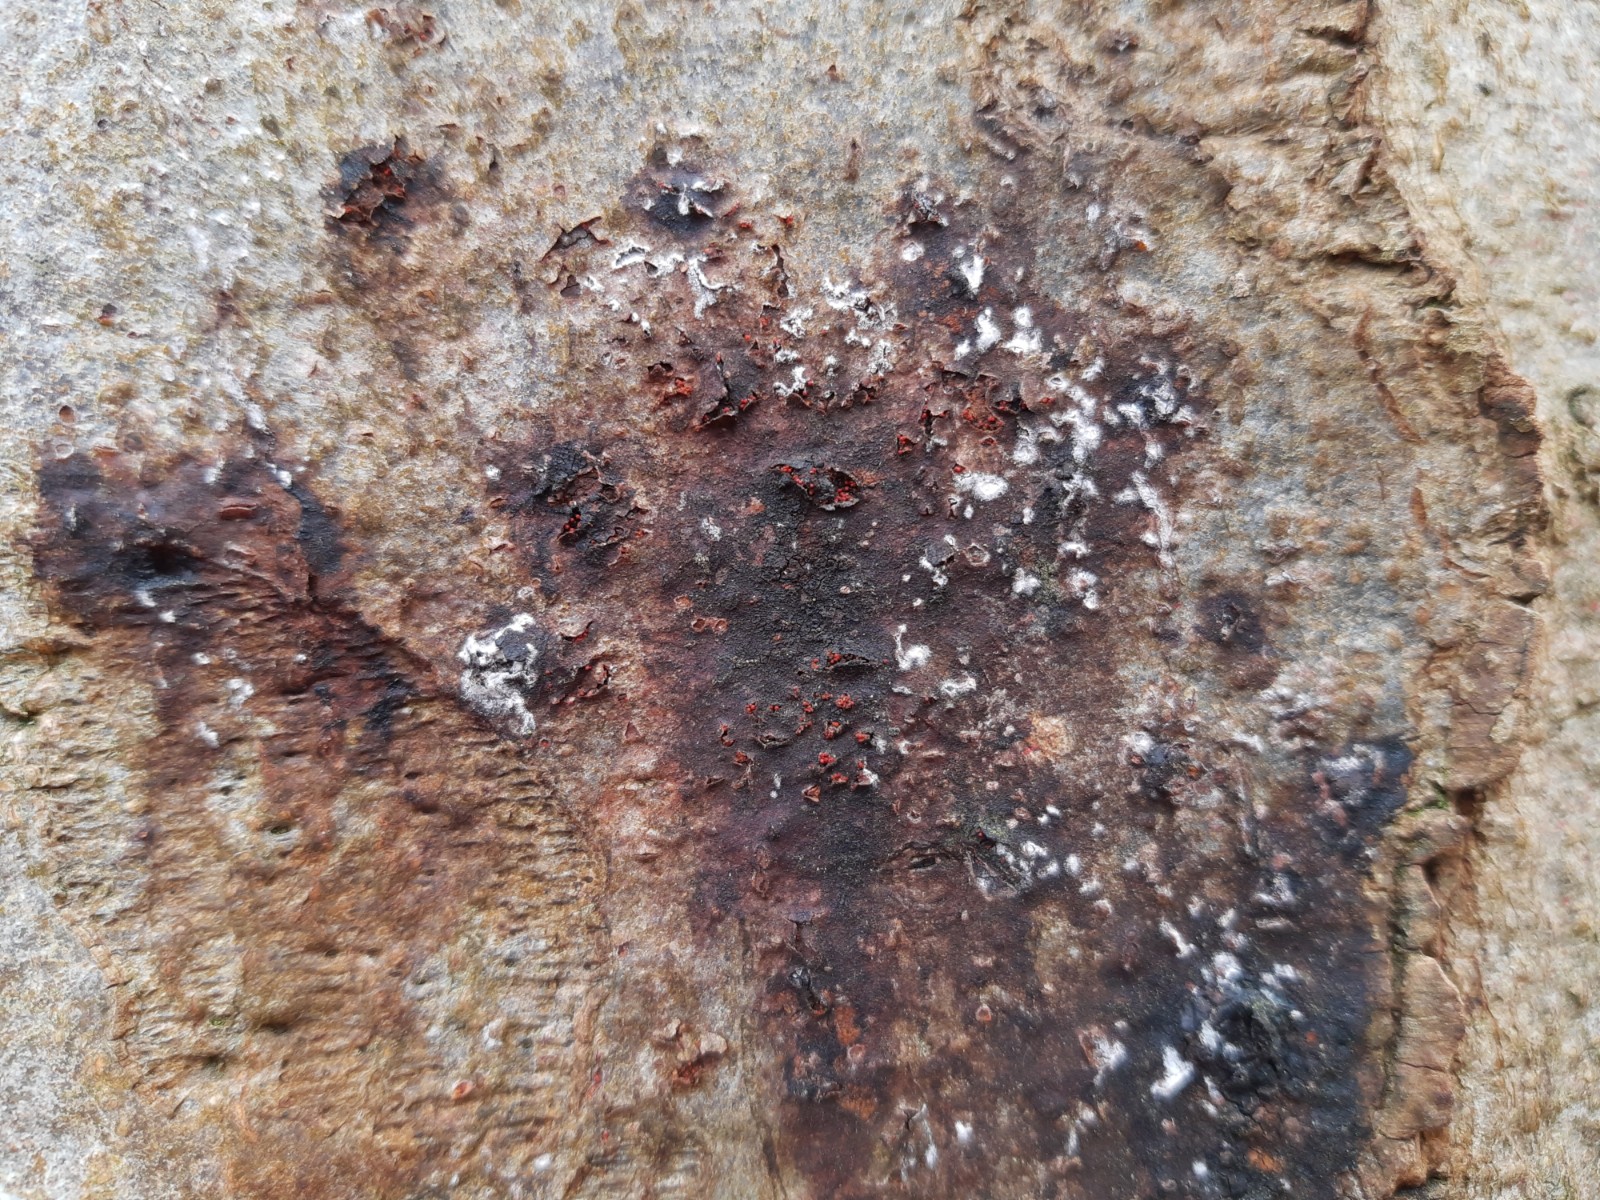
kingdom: Fungi
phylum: Ascomycota
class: Sordariomycetes
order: Hypocreales
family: Nectriaceae
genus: Neonectria
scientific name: Neonectria coccinea
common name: bøgebark-cinnobersvamp
